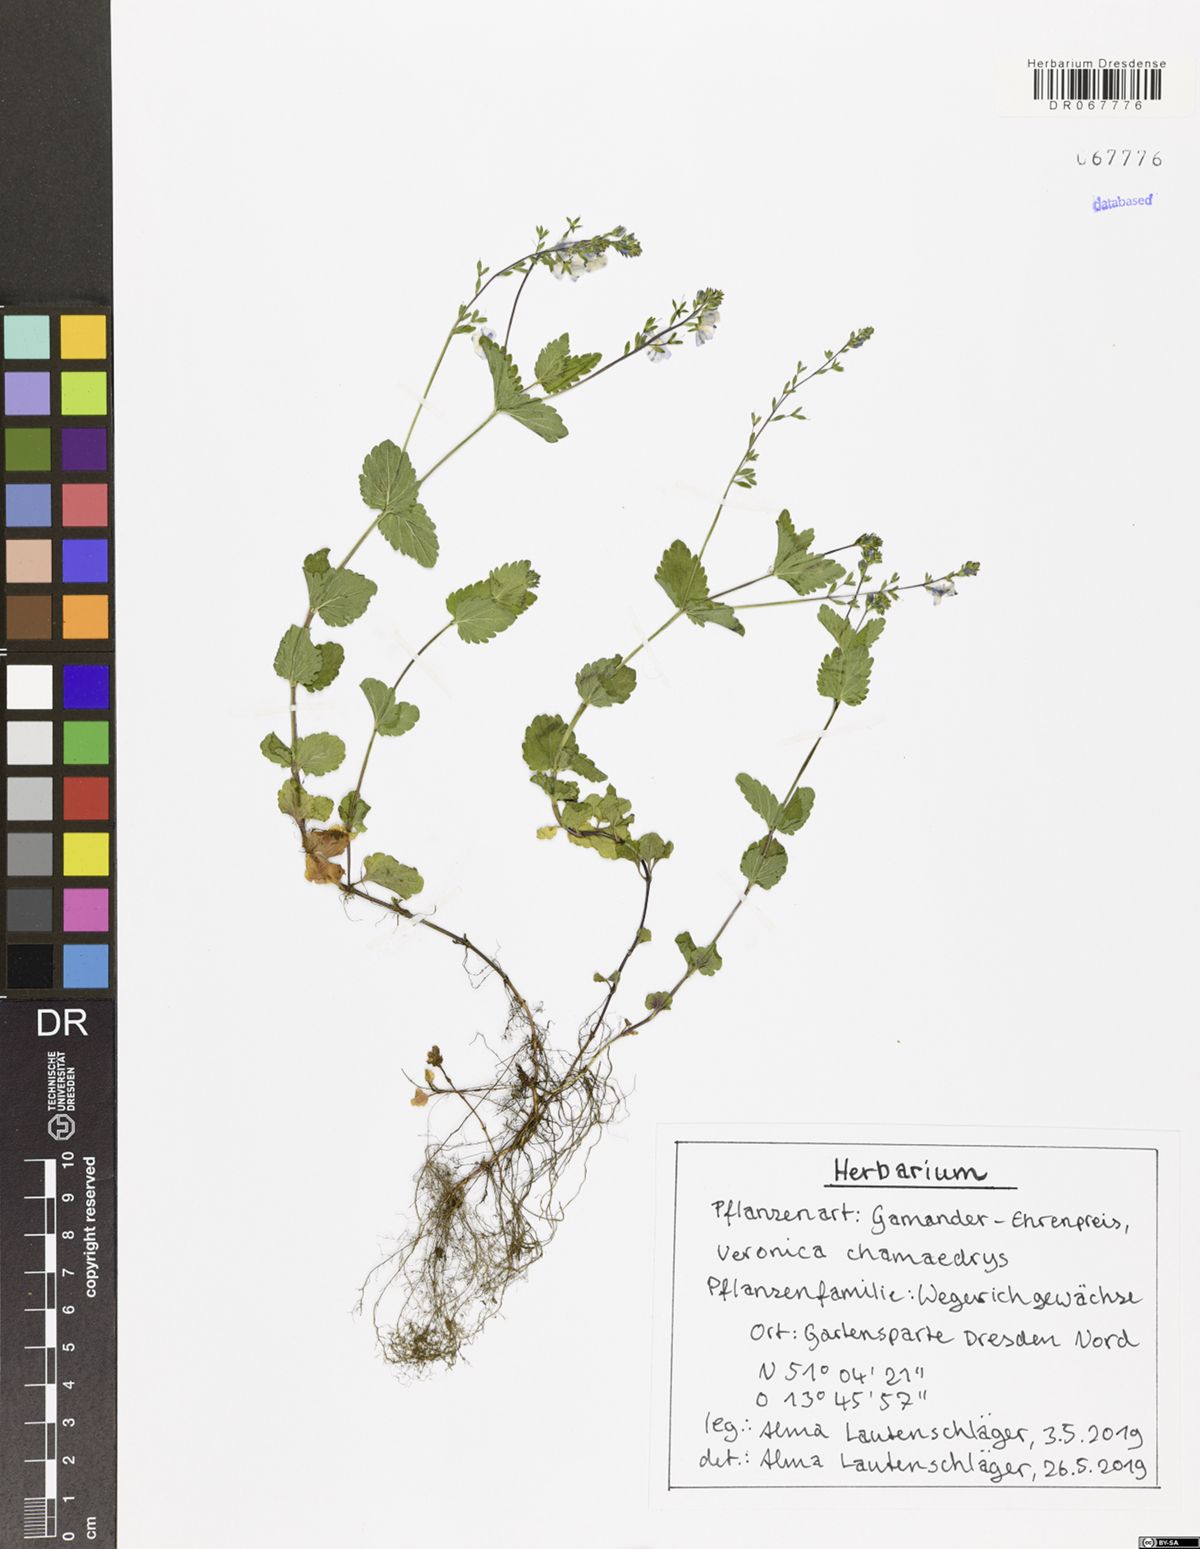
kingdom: Plantae
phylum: Tracheophyta
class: Magnoliopsida
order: Lamiales
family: Plantaginaceae
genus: Veronica
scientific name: Veronica chamaedrys
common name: Germander speedwell
